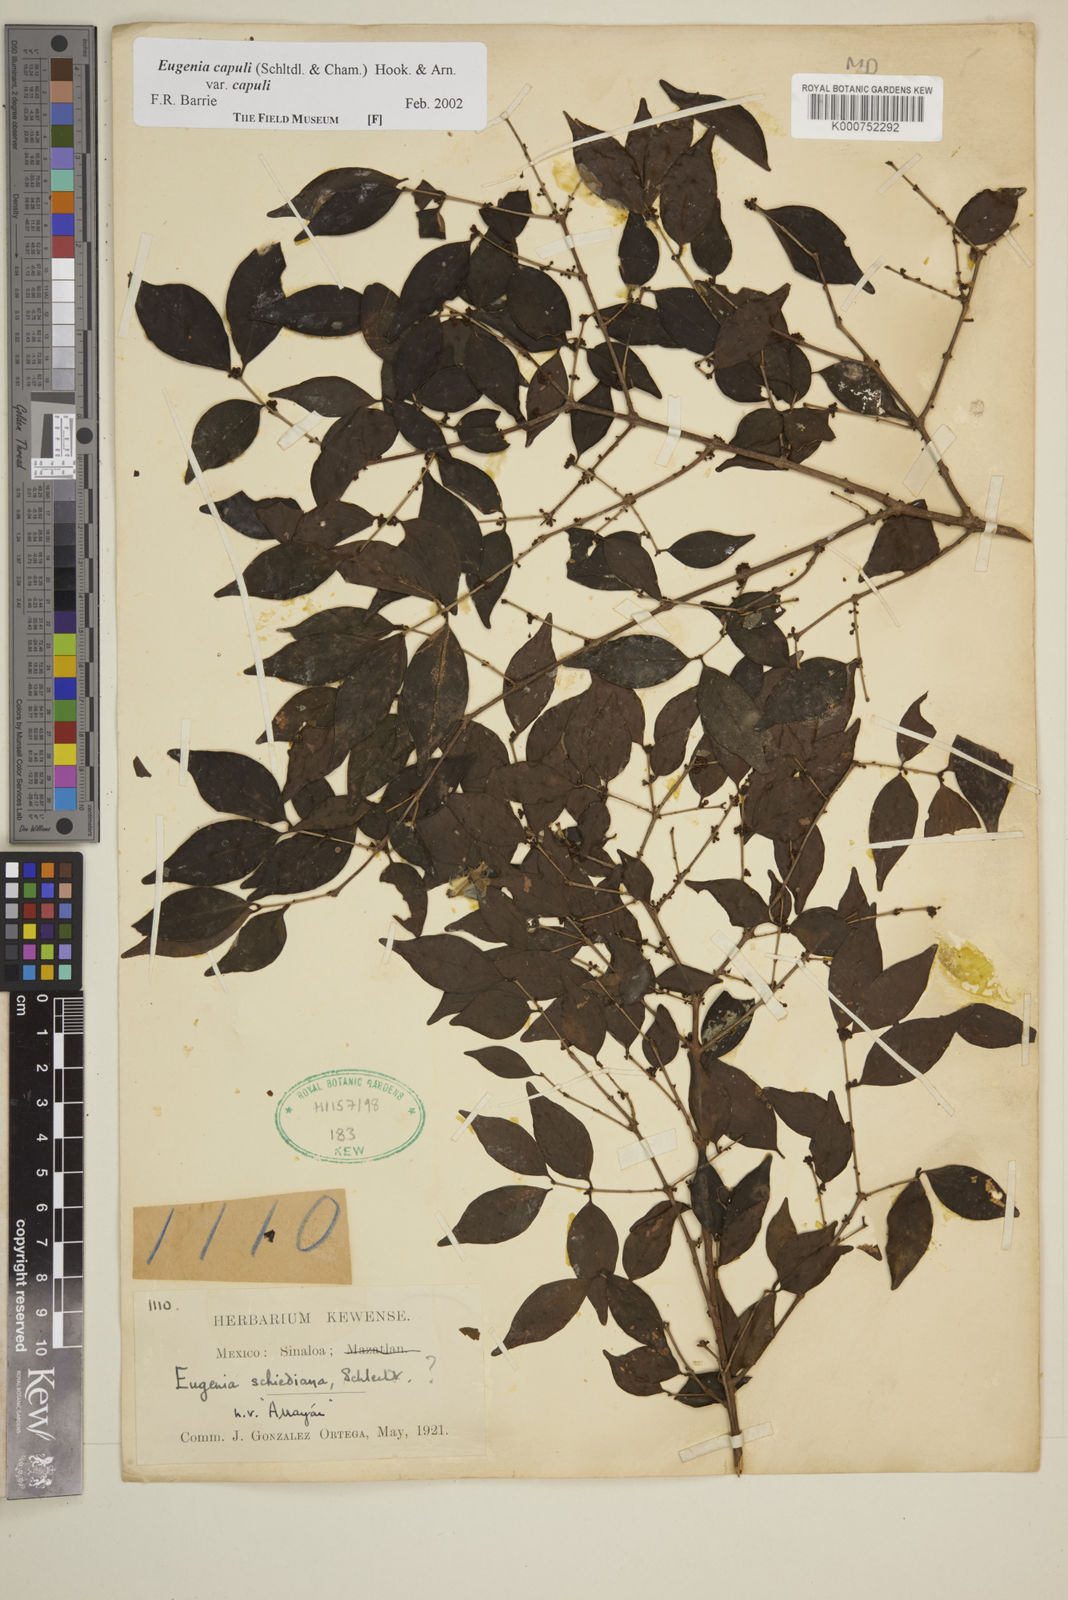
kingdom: Plantae
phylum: Tracheophyta
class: Magnoliopsida
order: Myrtales
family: Myrtaceae
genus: Eugenia
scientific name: Eugenia capuli
